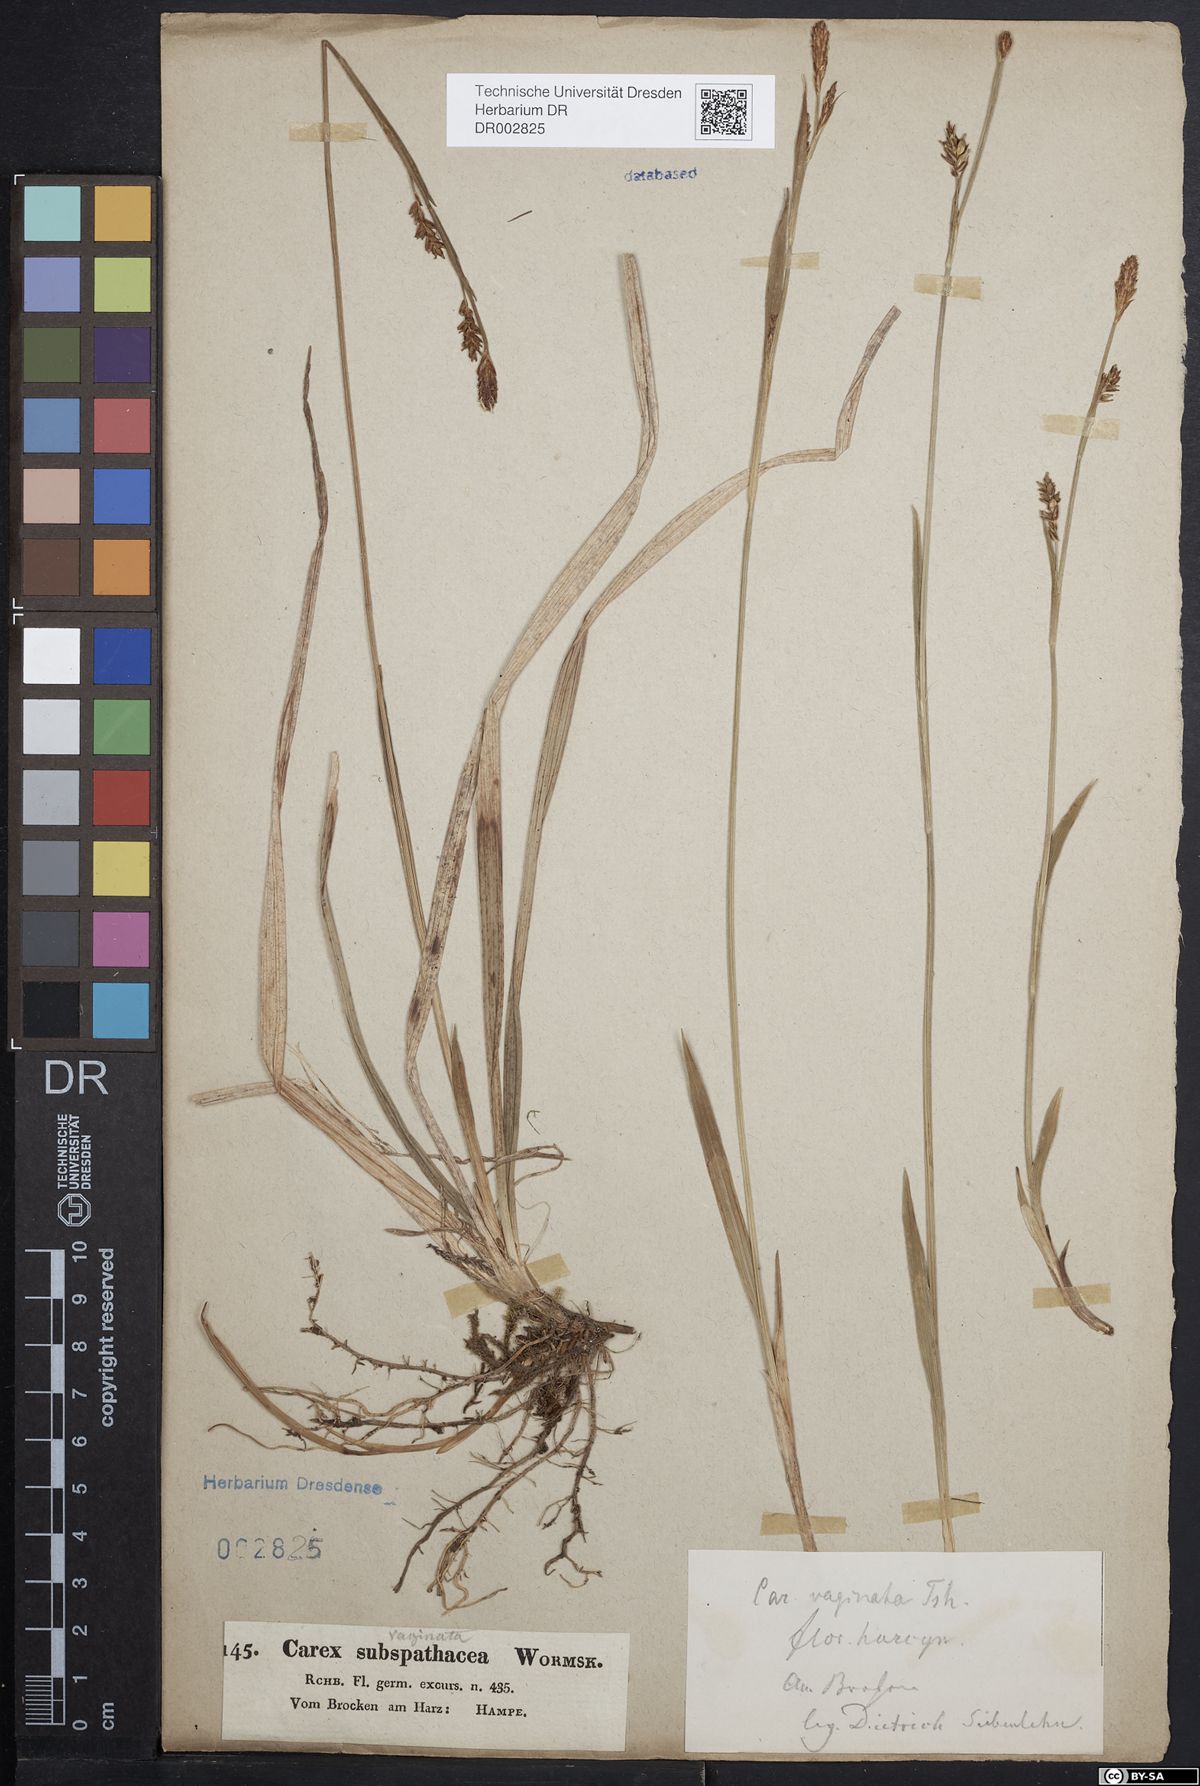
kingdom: Plantae
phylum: Tracheophyta
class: Liliopsida
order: Poales
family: Cyperaceae
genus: Carex
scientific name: Carex vaginata
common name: Sheathed sedge
